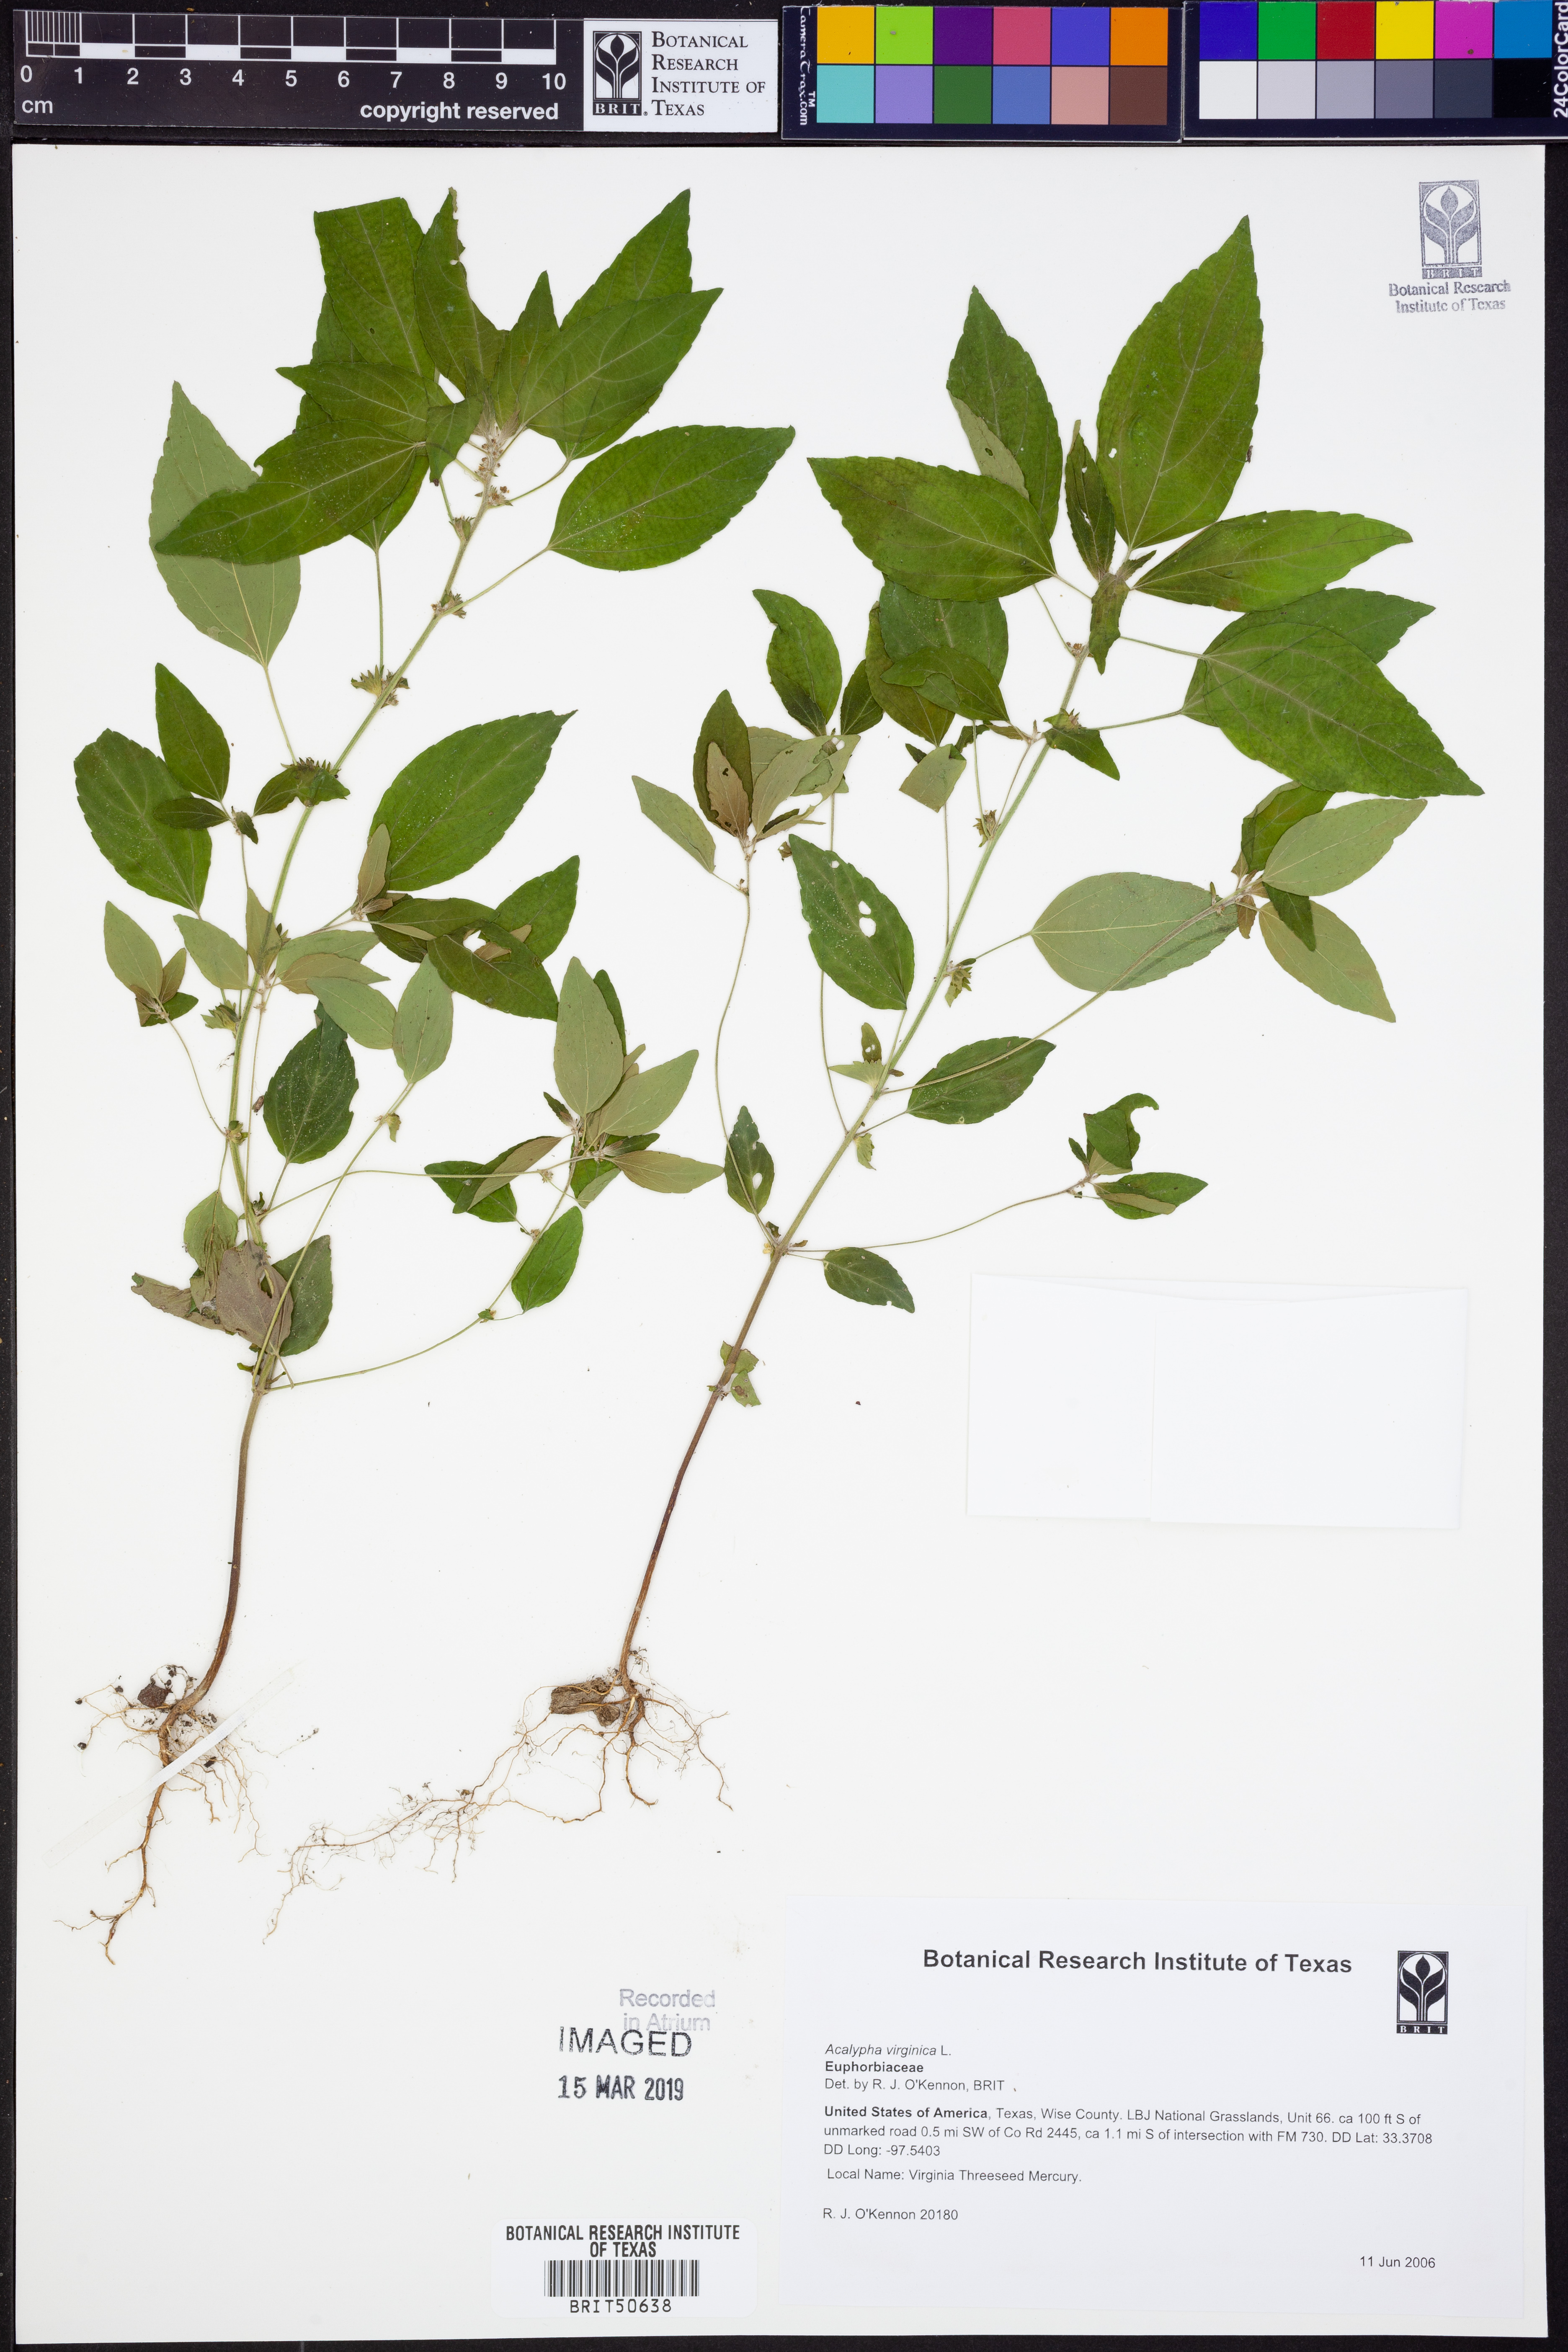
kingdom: Plantae
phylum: Tracheophyta
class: Magnoliopsida
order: Malpighiales
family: Euphorbiaceae
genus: Acalypha
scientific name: Acalypha virginica
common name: Virginia copperleaf
